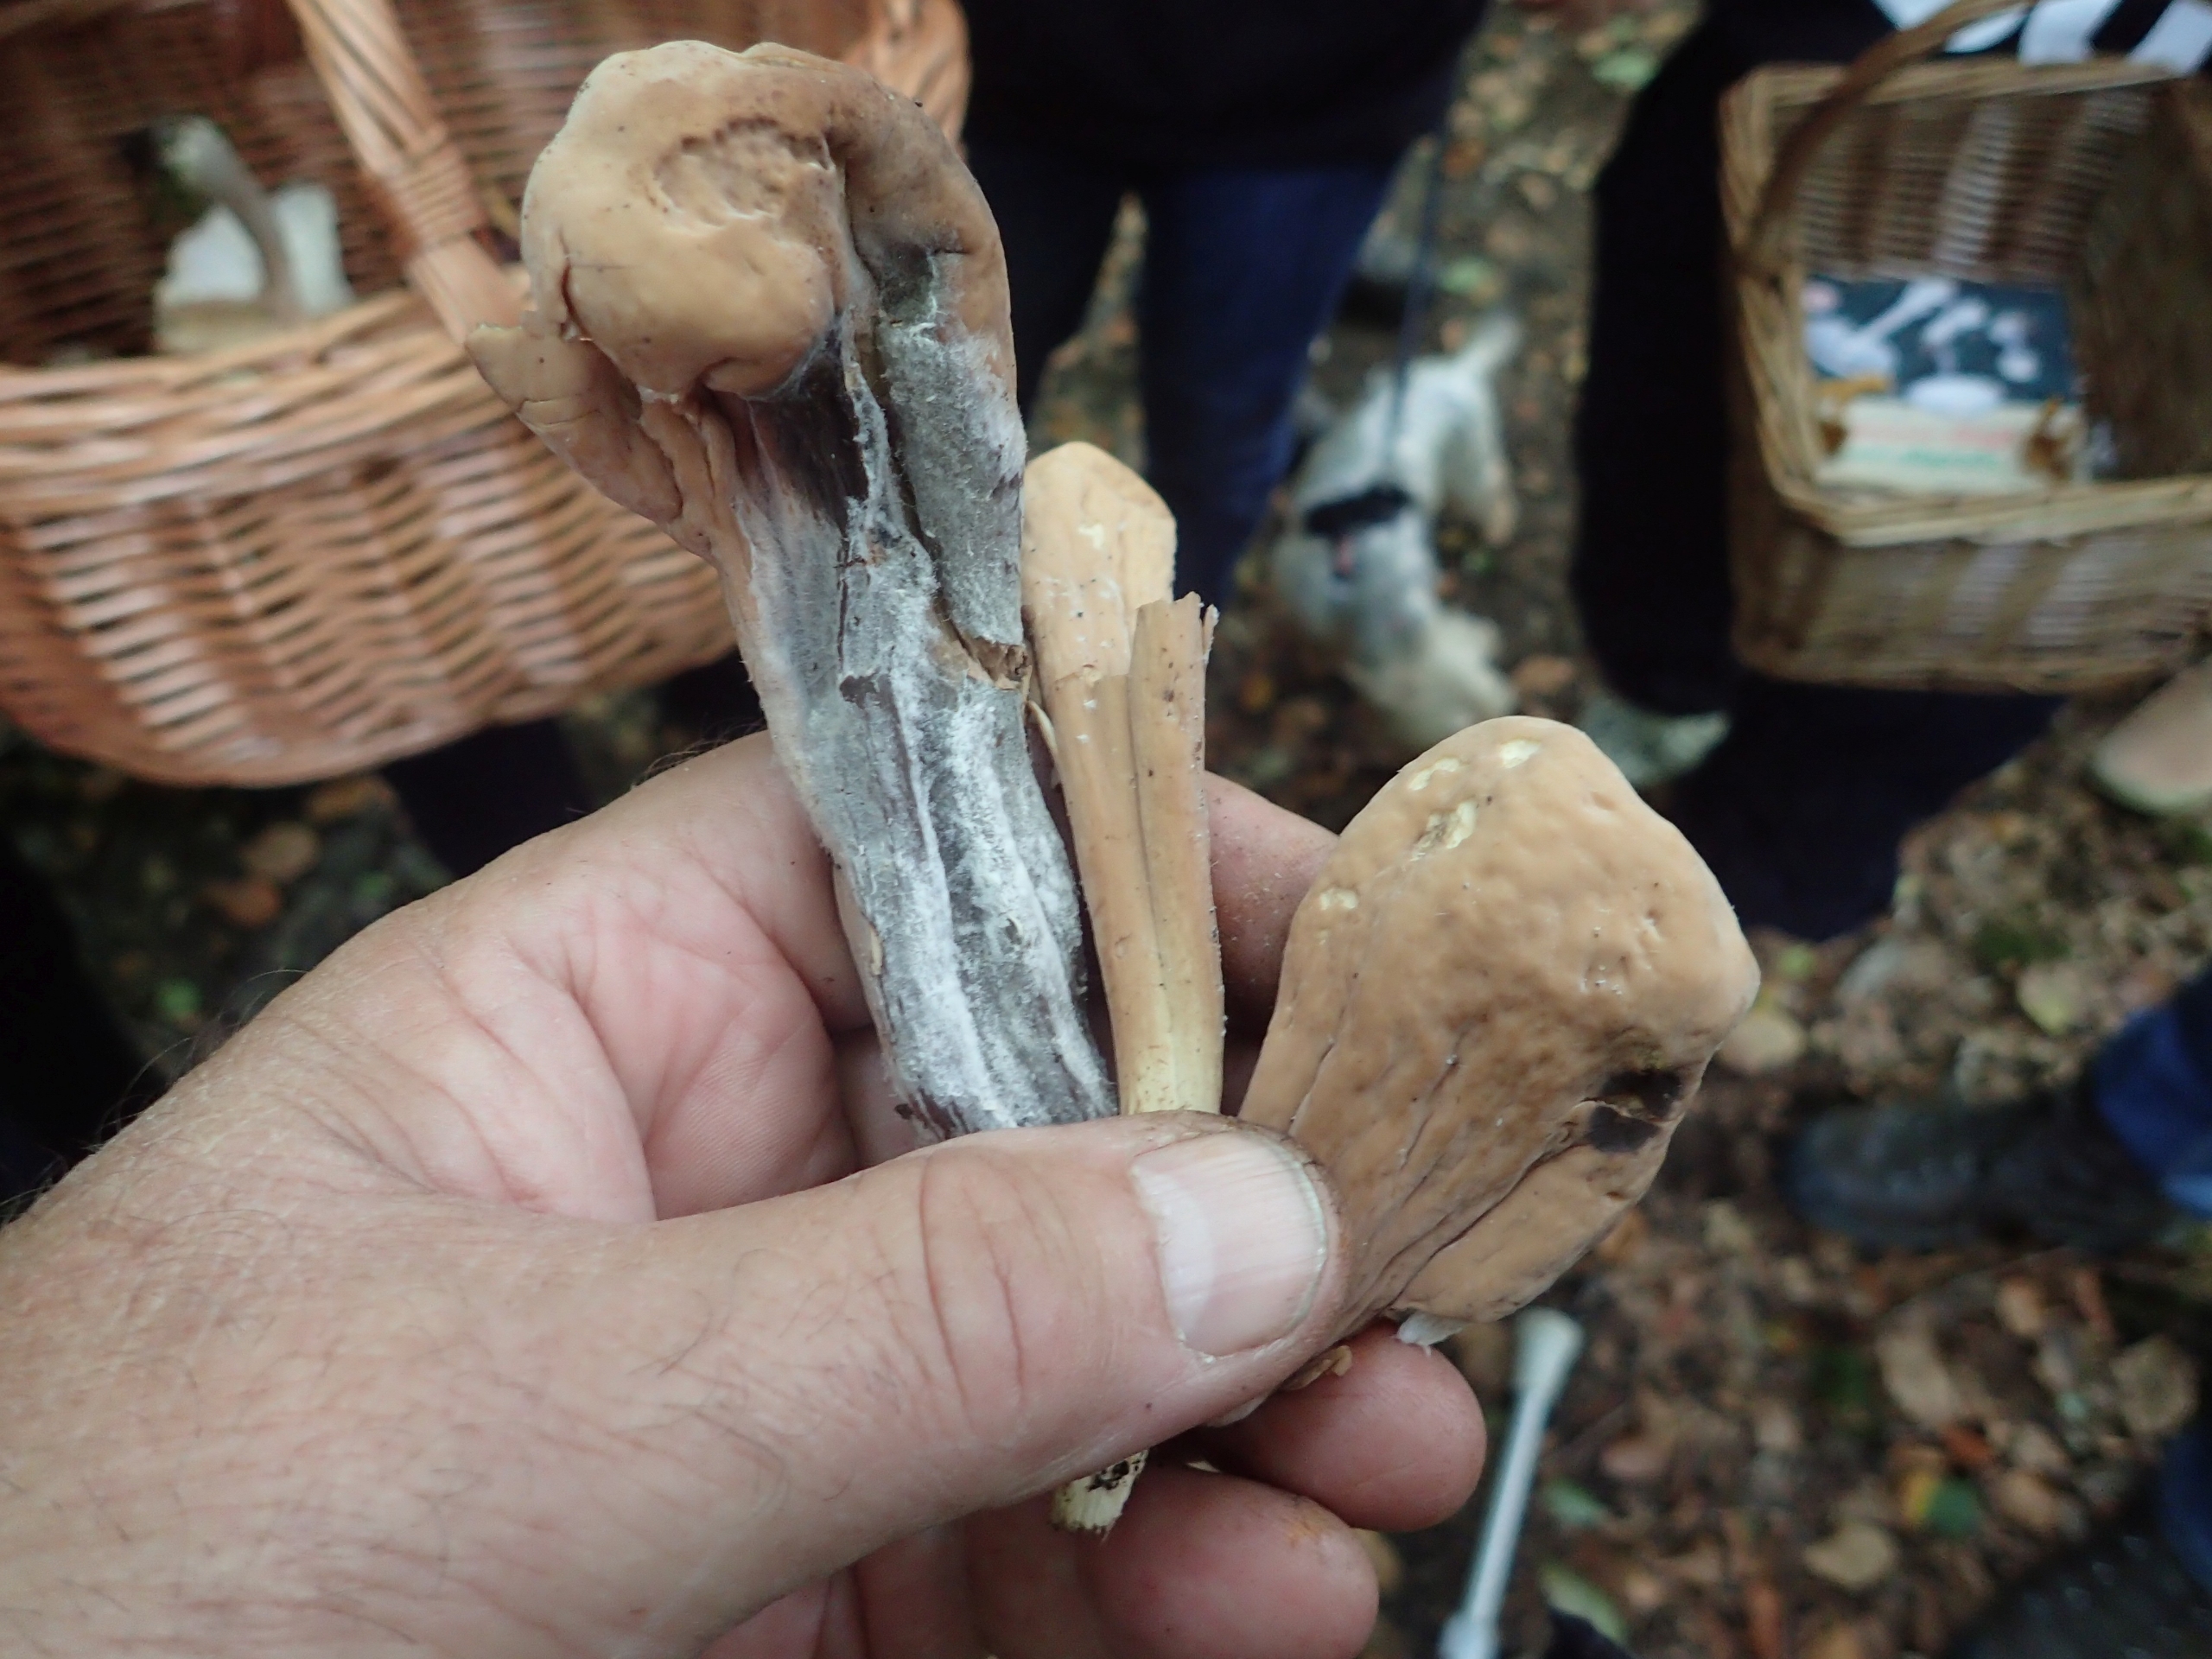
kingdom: Fungi
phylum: Basidiomycota
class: Agaricomycetes
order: Gomphales
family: Clavariadelphaceae
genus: Clavariadelphus
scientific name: Clavariadelphus pistillaris
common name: Herkules-kæmpekølle
